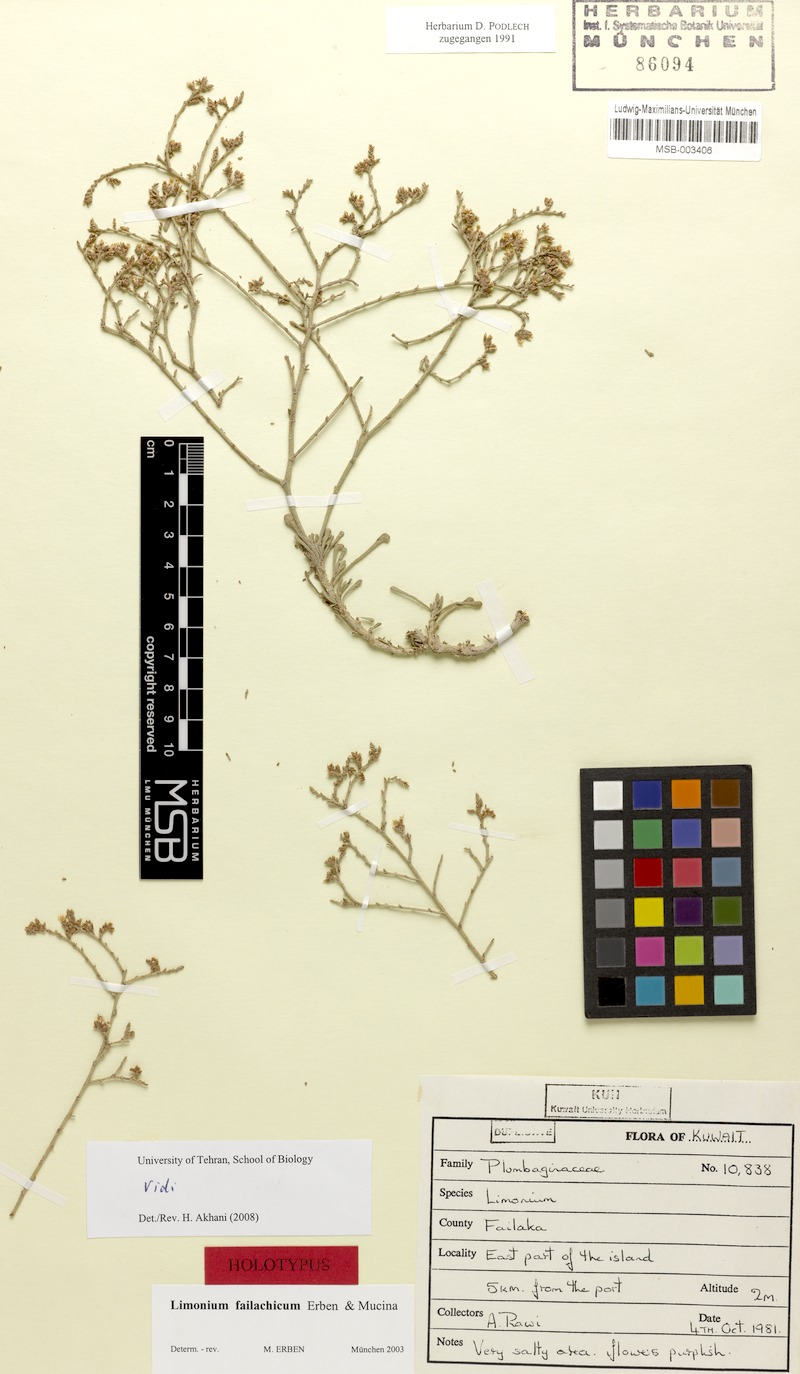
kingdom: Plantae
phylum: Tracheophyta
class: Magnoliopsida
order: Caryophyllales
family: Plumbaginaceae
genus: Limonium
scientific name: Limonium failachicum
